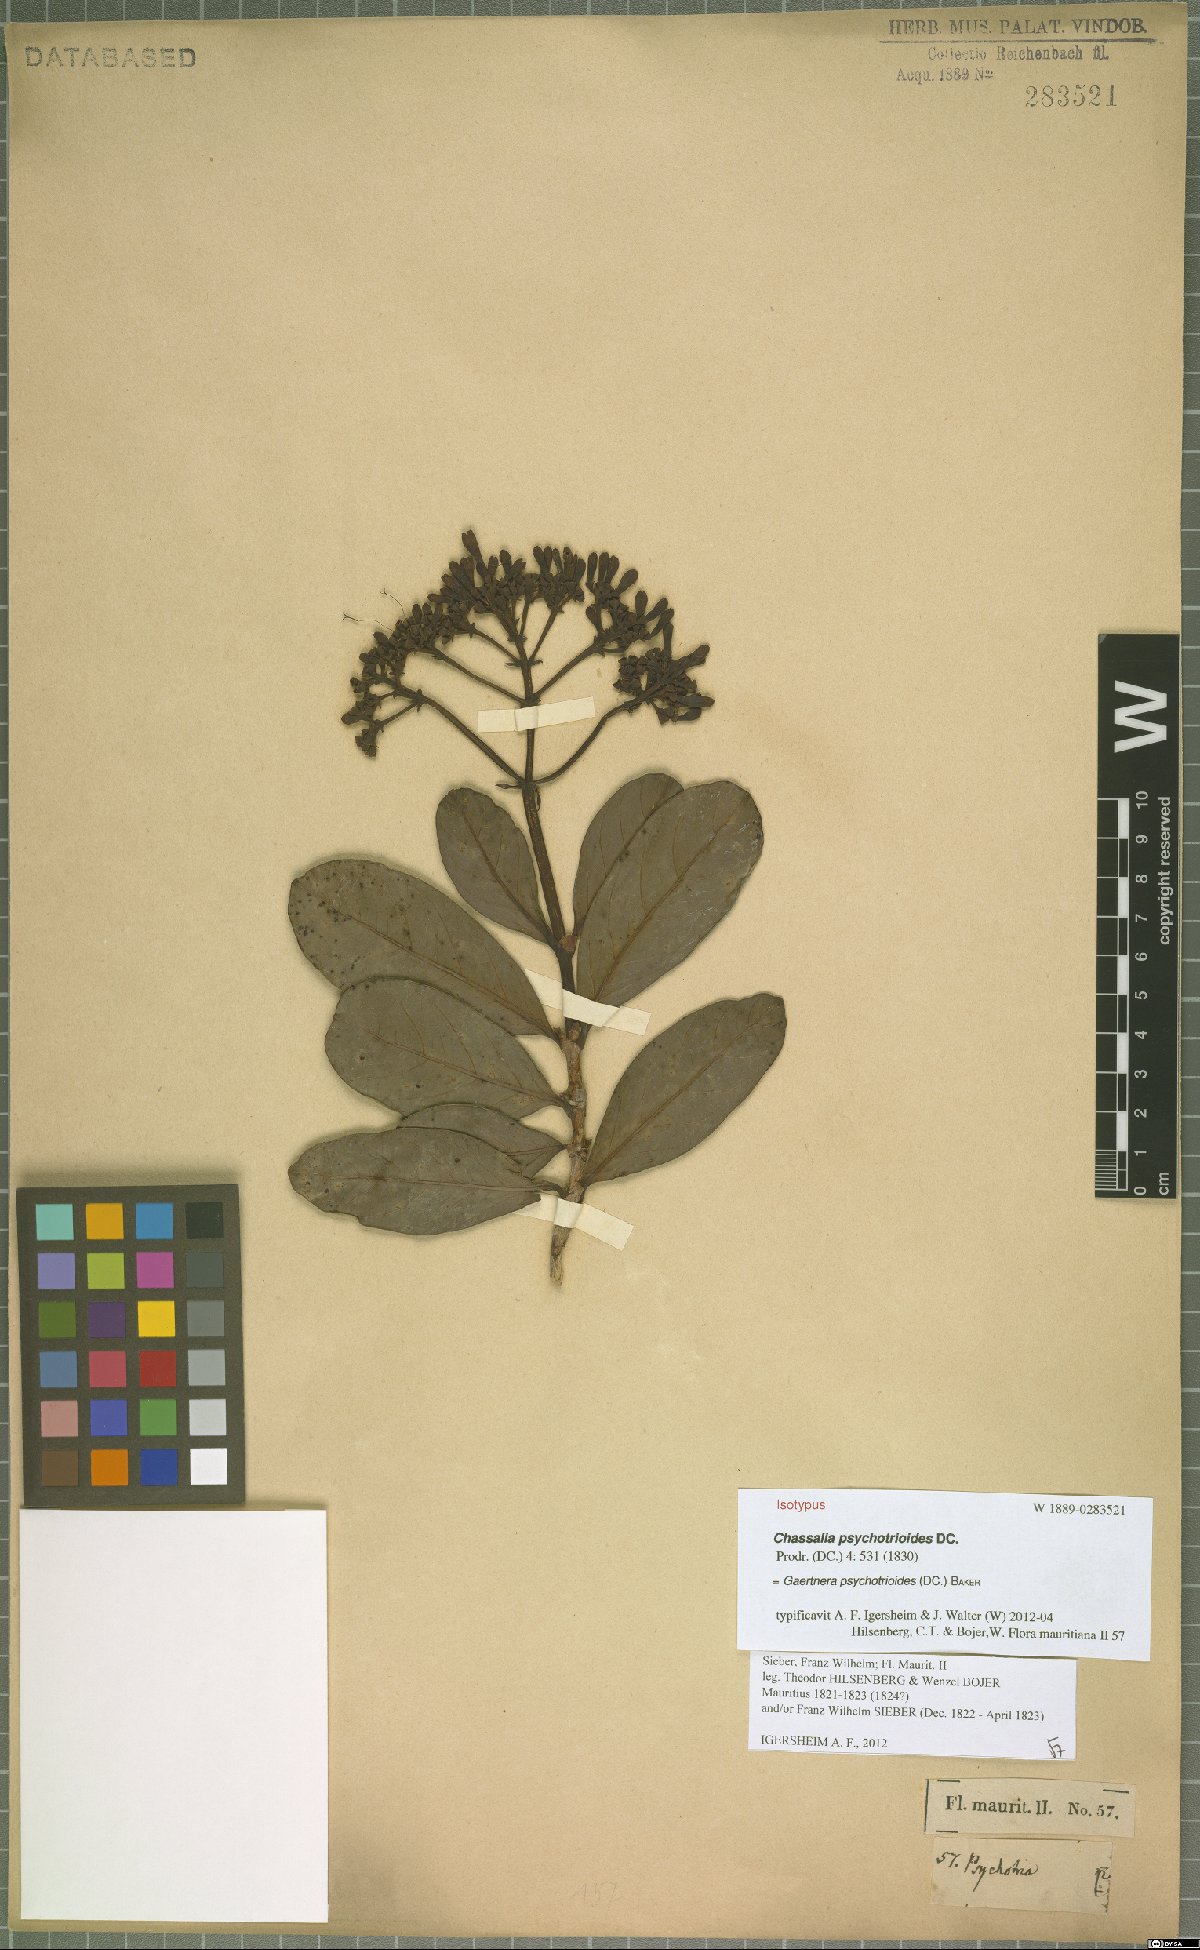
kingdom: Plantae
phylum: Tracheophyta
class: Magnoliopsida
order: Gentianales
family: Rubiaceae
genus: Gaertnera
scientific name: Gaertnera psychotrioides
